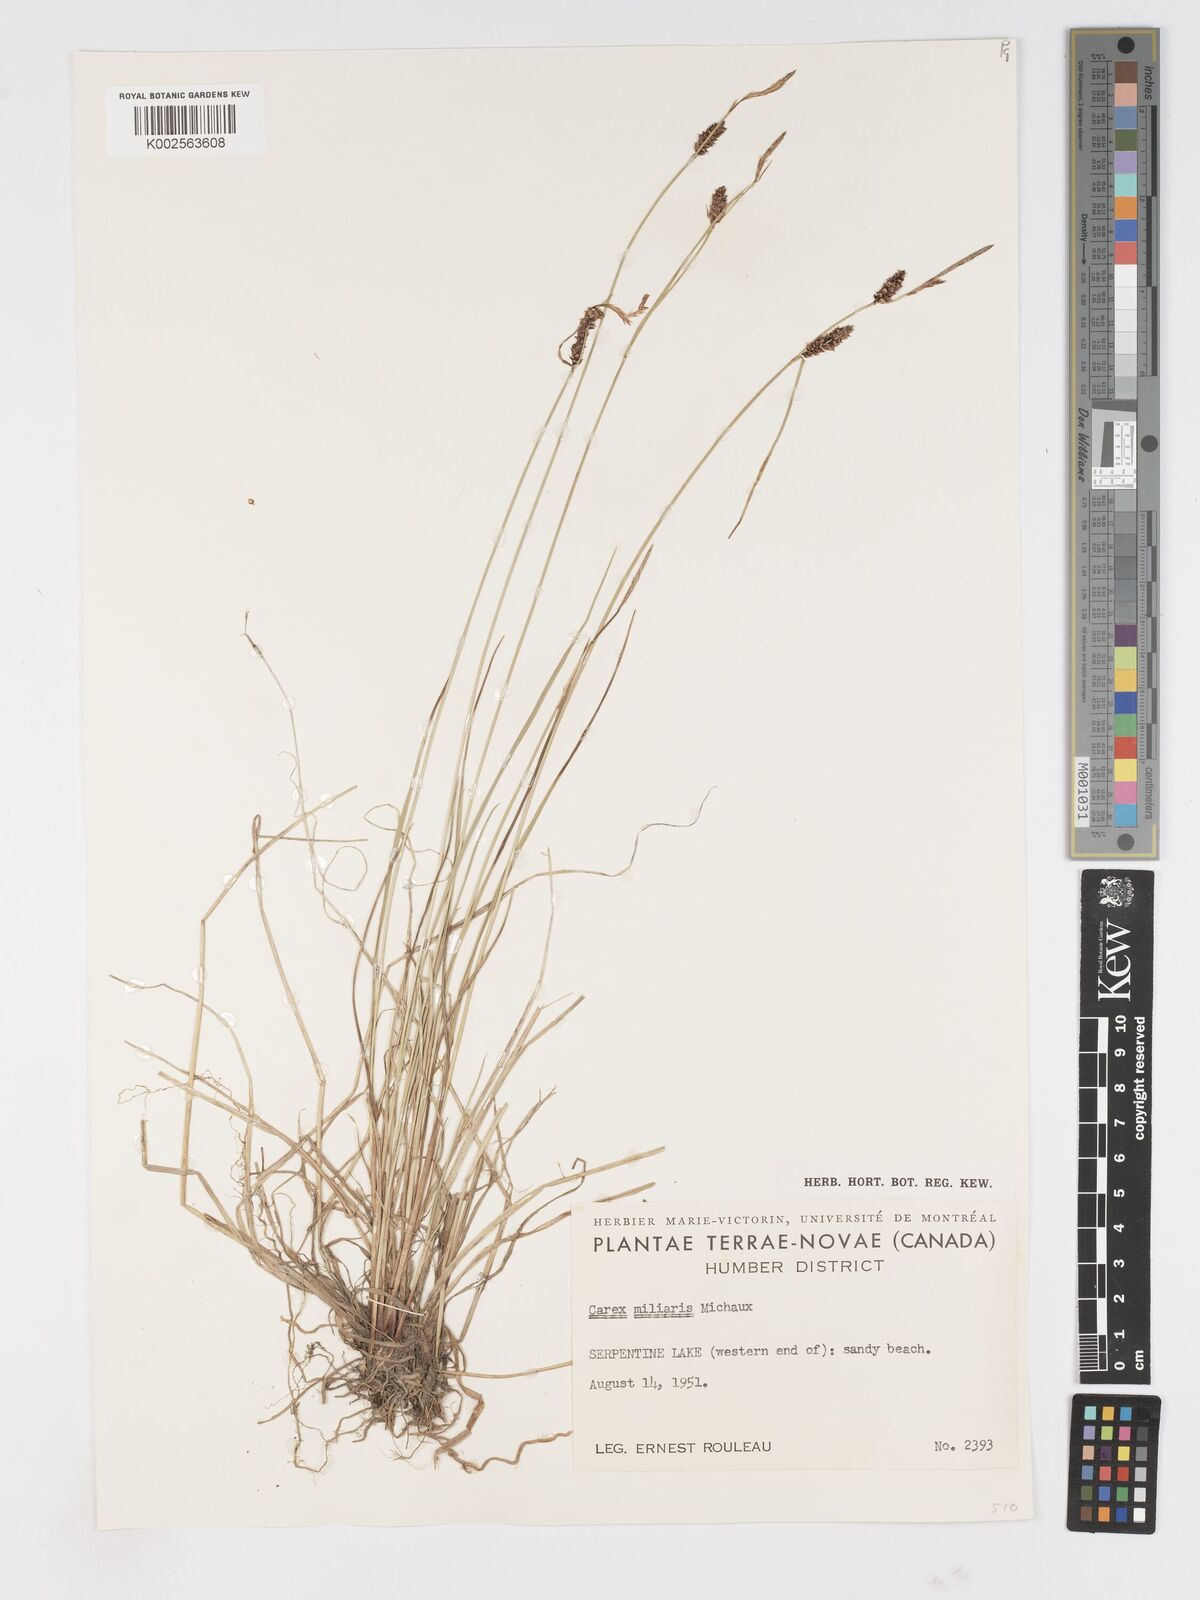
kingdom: Plantae
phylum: Tracheophyta
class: Liliopsida
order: Poales
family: Cyperaceae
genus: Carex
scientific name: Carex miliaris
